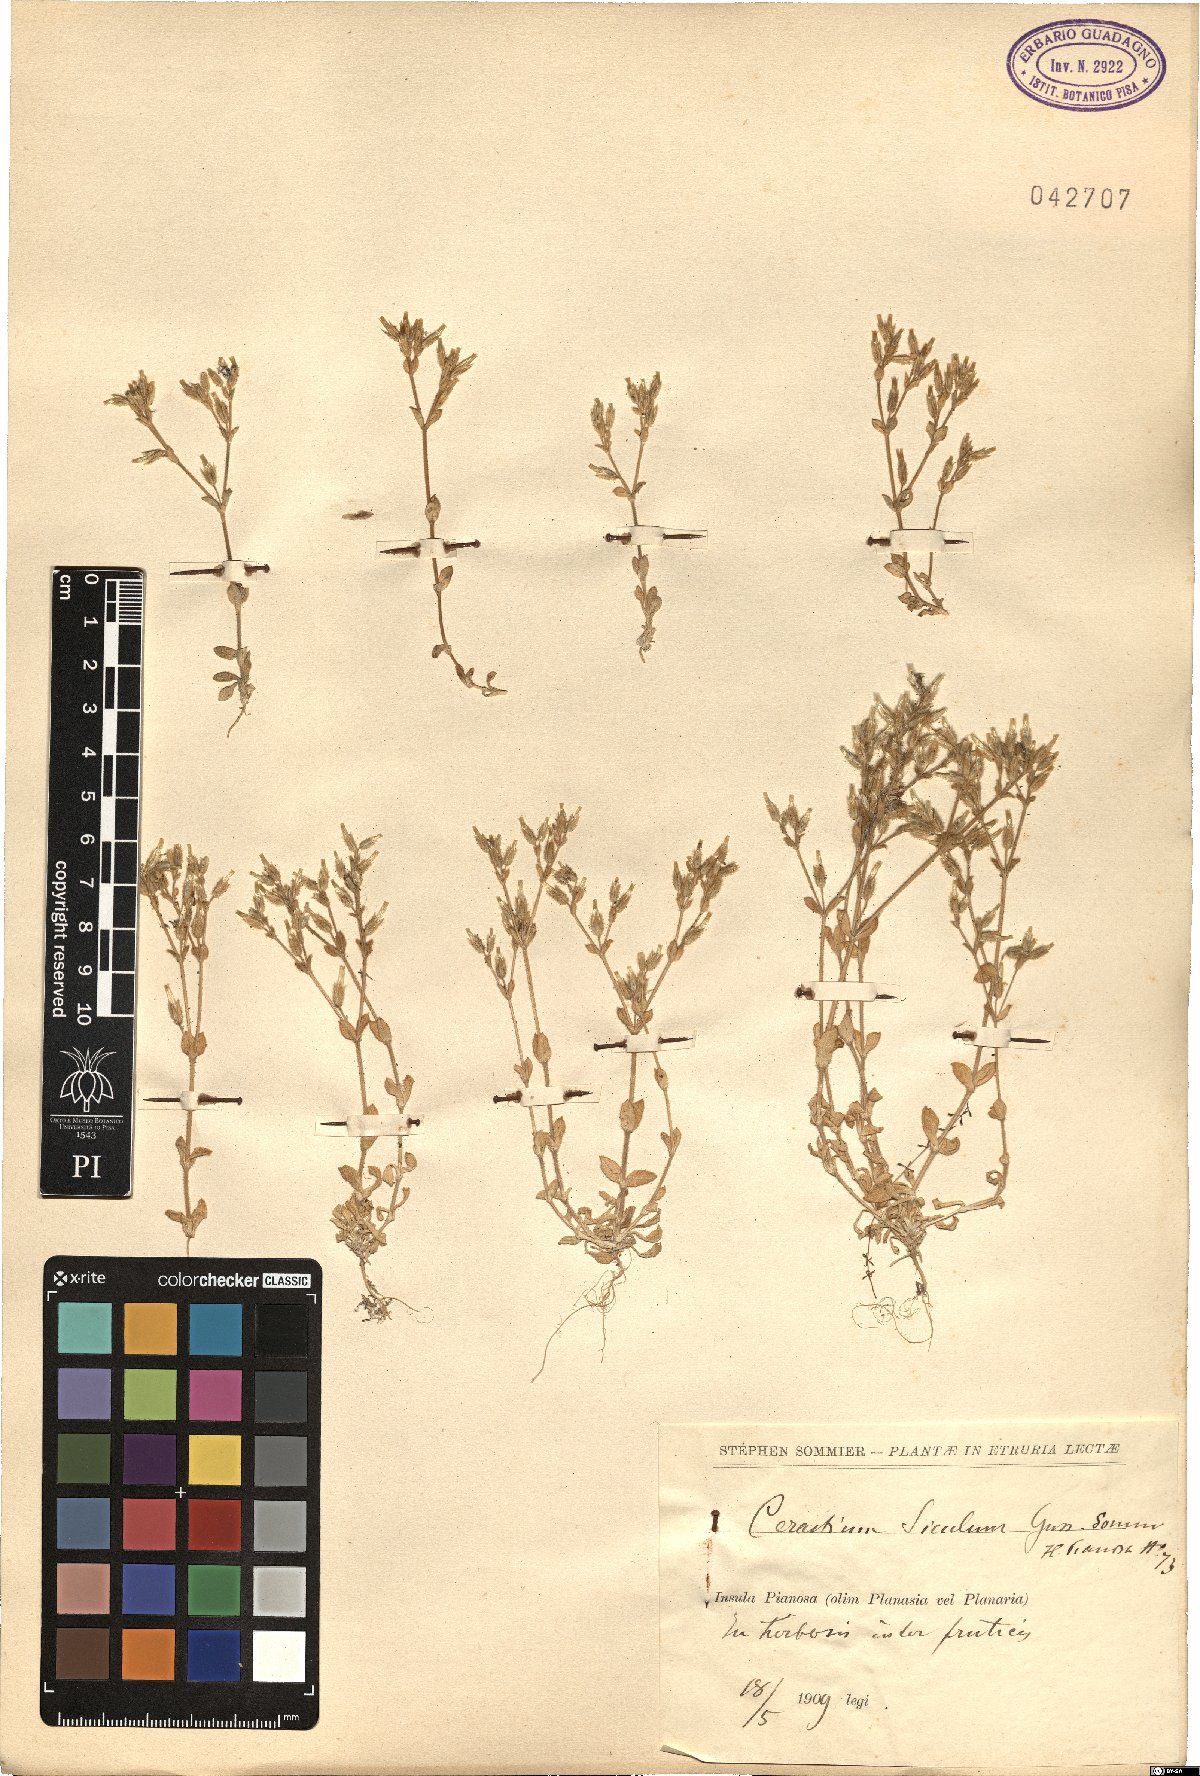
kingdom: Plantae
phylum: Tracheophyta
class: Magnoliopsida
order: Caryophyllales
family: Caryophyllaceae
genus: Cerastium
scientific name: Cerastium siculum
